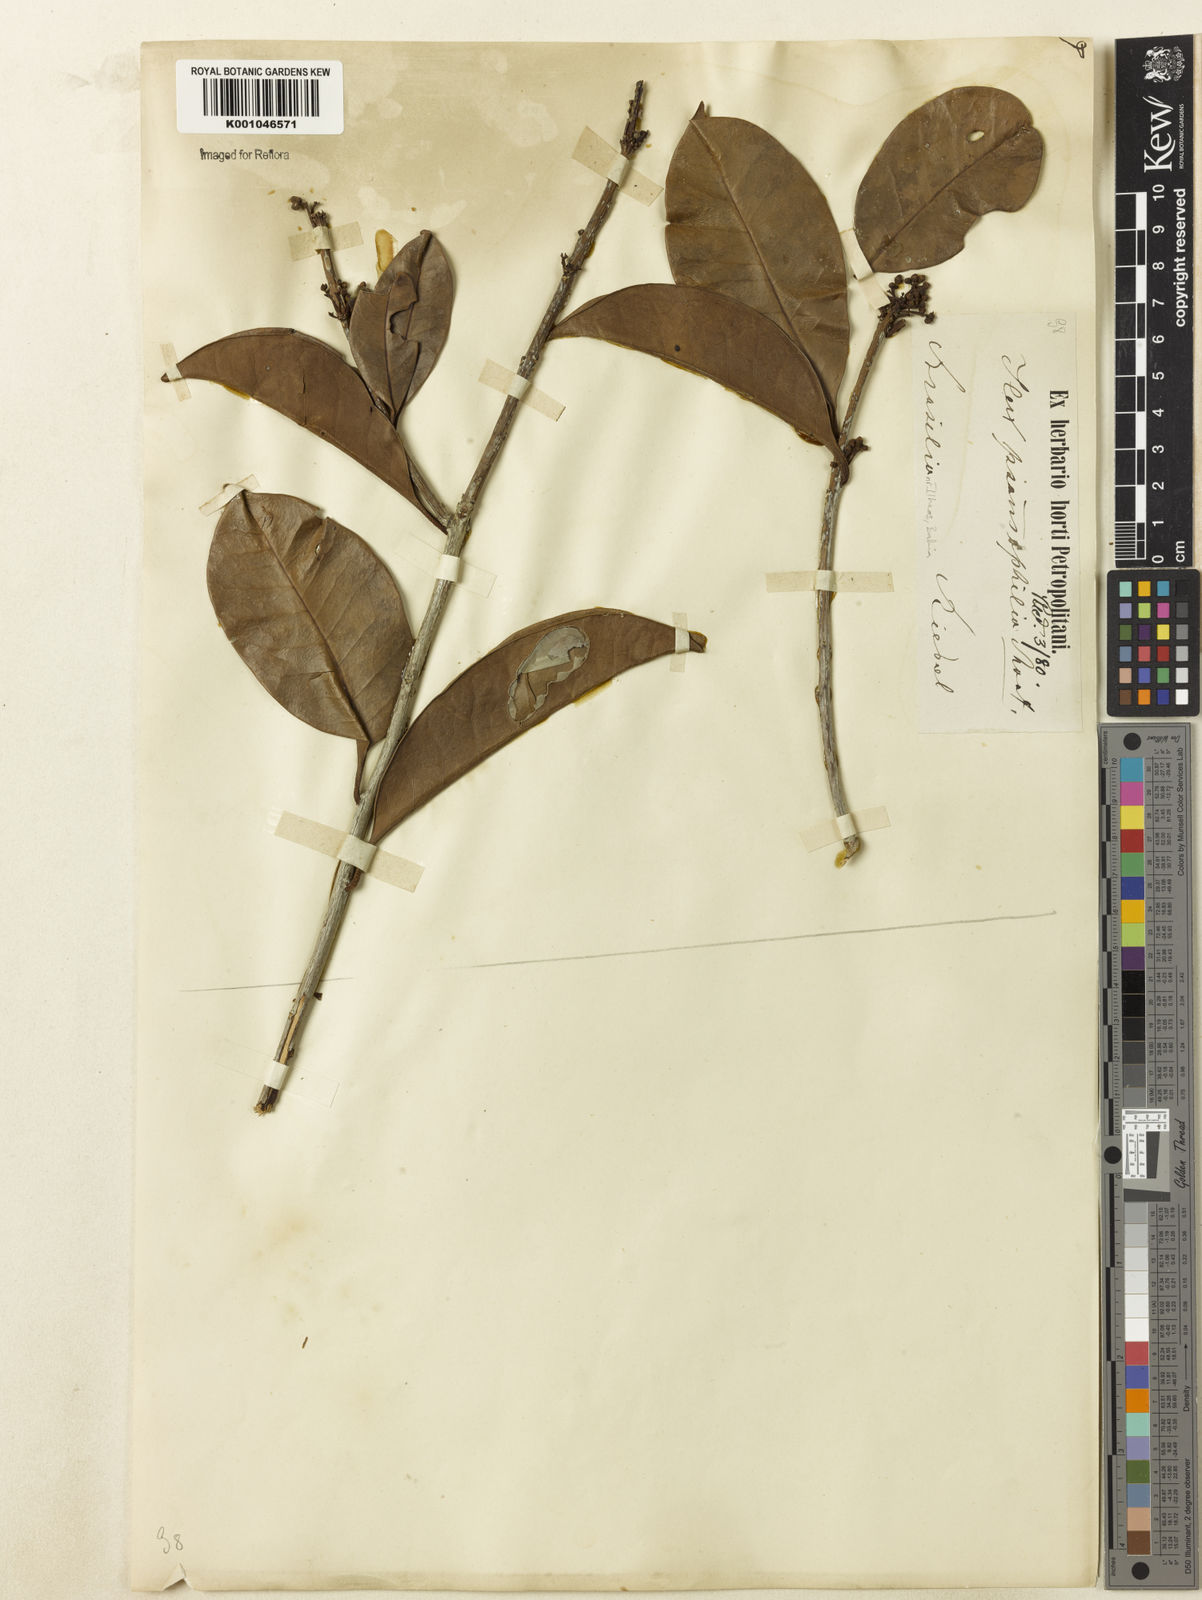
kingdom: Plantae
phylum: Tracheophyta
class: Magnoliopsida
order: Aquifoliales
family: Aquifoliaceae
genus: Ilex
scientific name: Ilex psammophila
